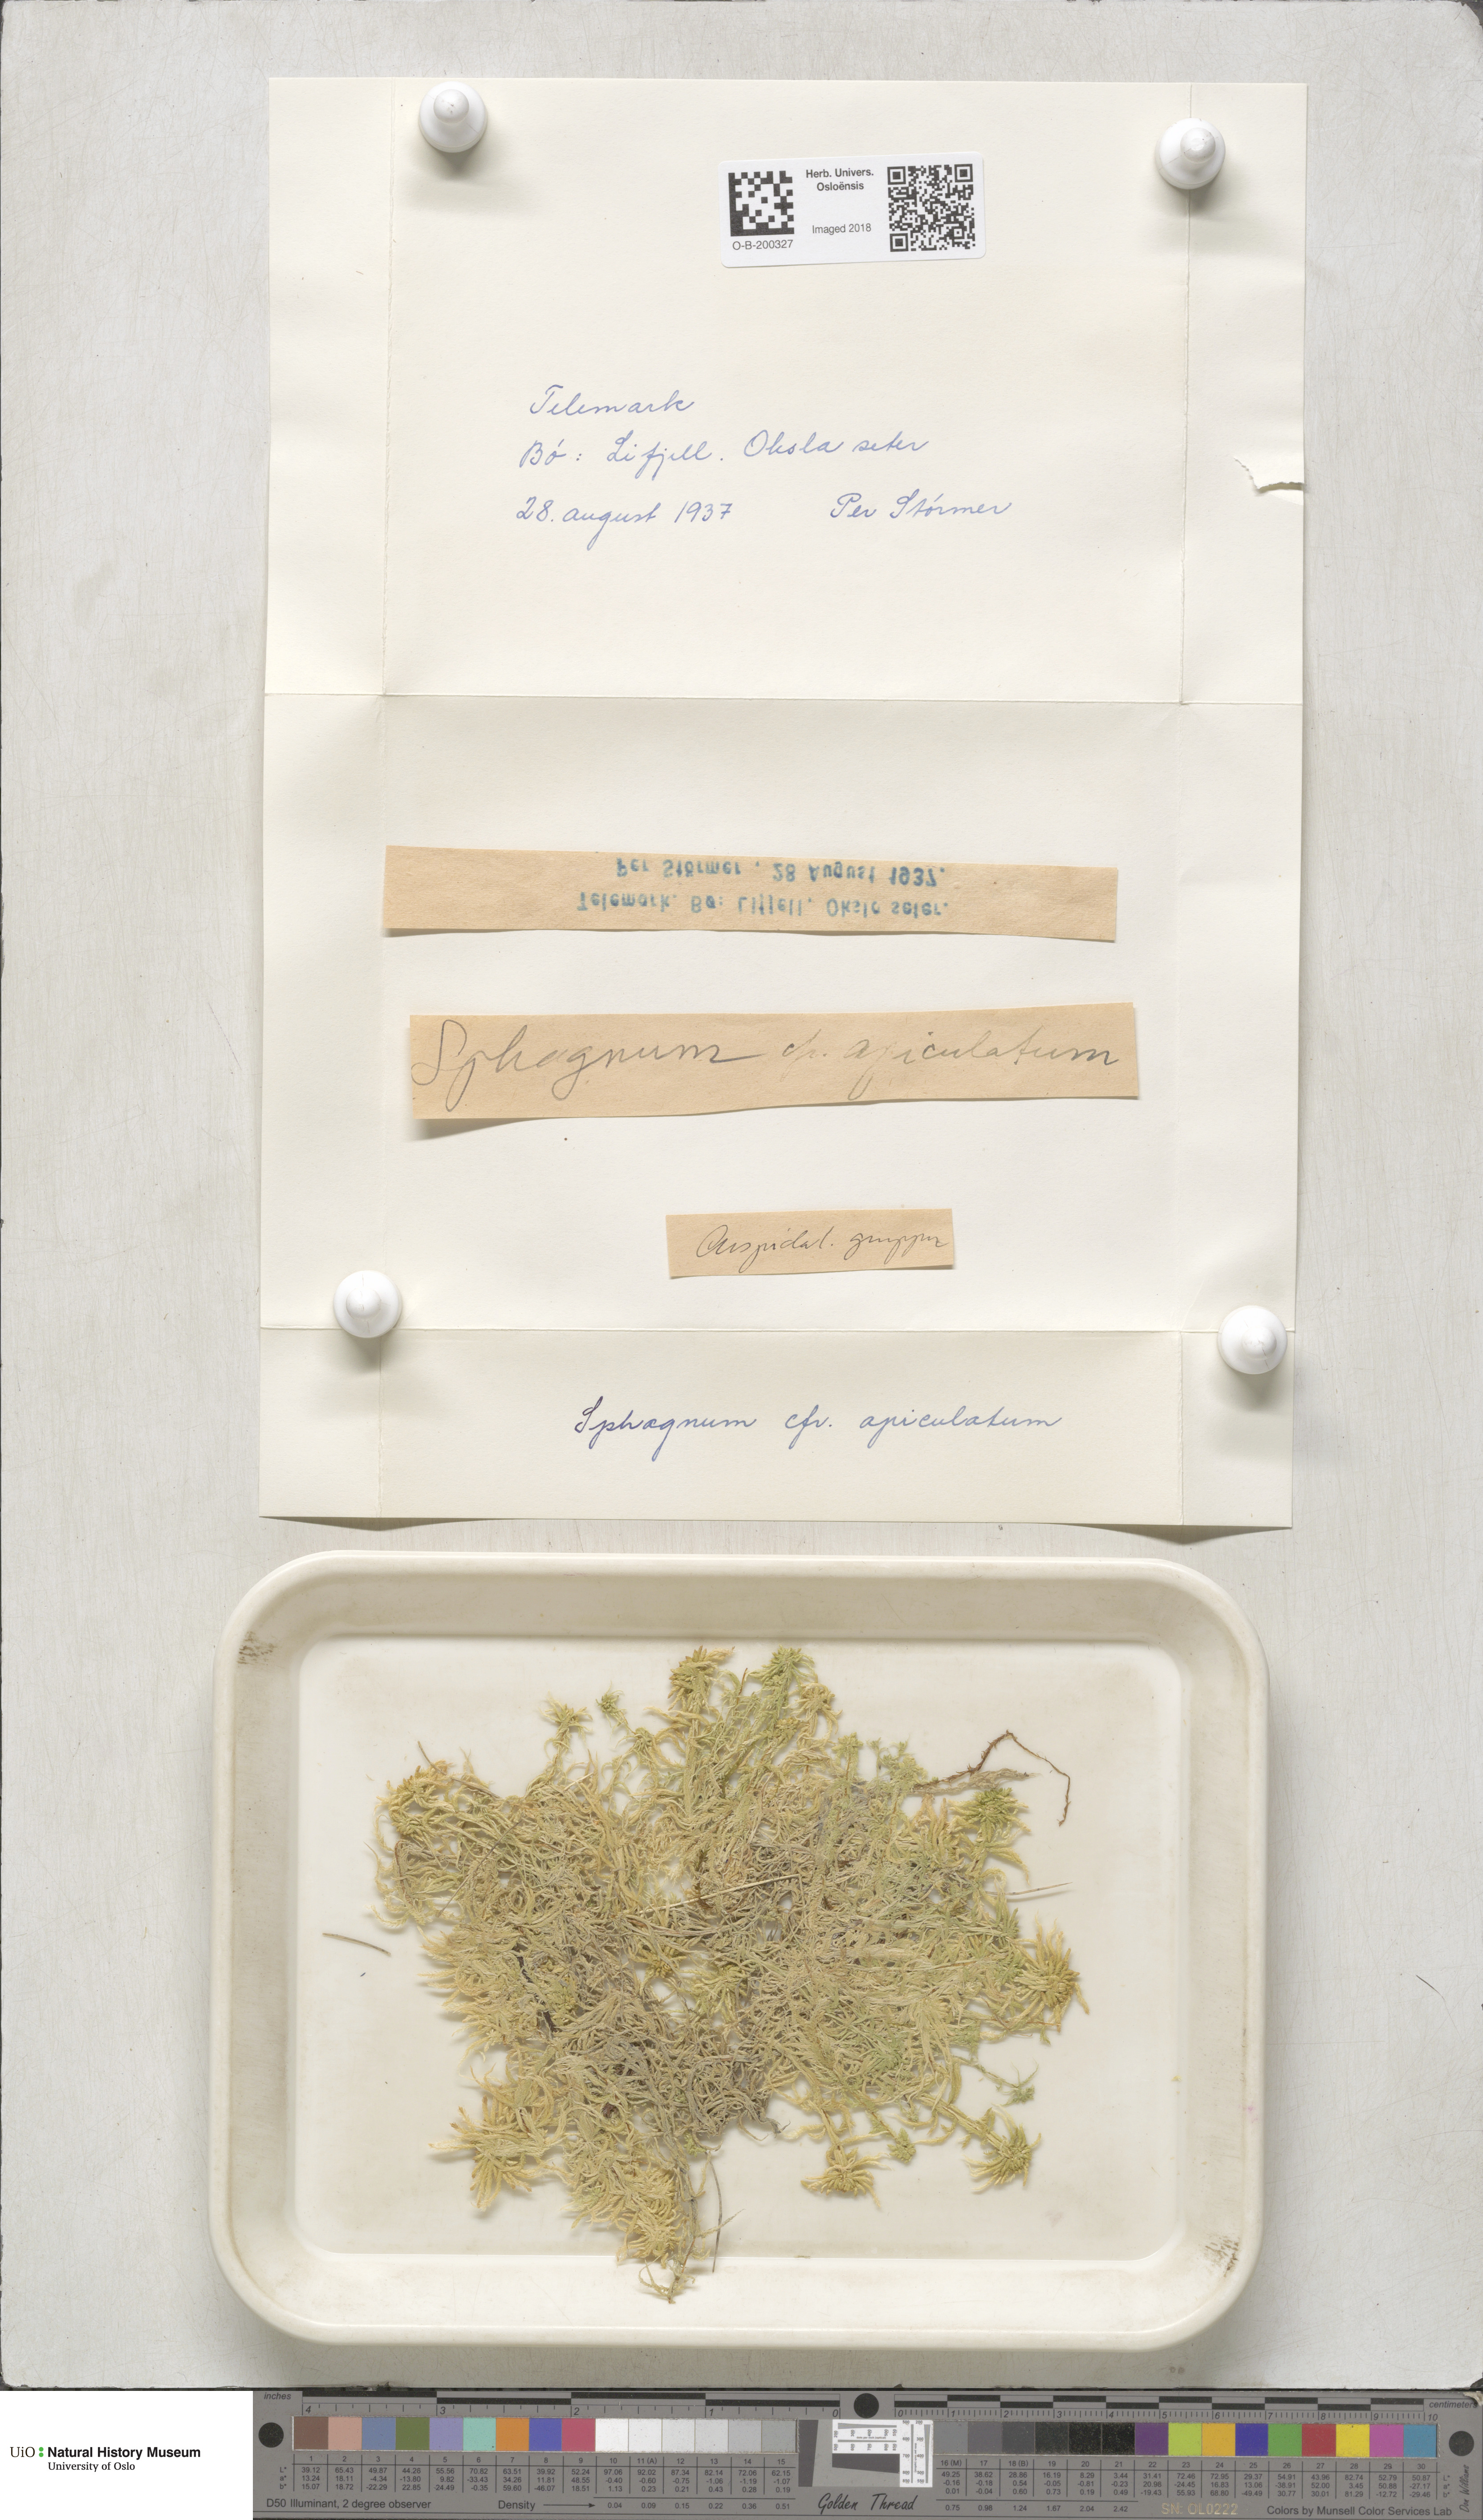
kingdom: Plantae
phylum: Bryophyta
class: Sphagnopsida
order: Sphagnales
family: Sphagnaceae
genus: Sphagnum
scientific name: Sphagnum fallax
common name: Flat-top peat moss
